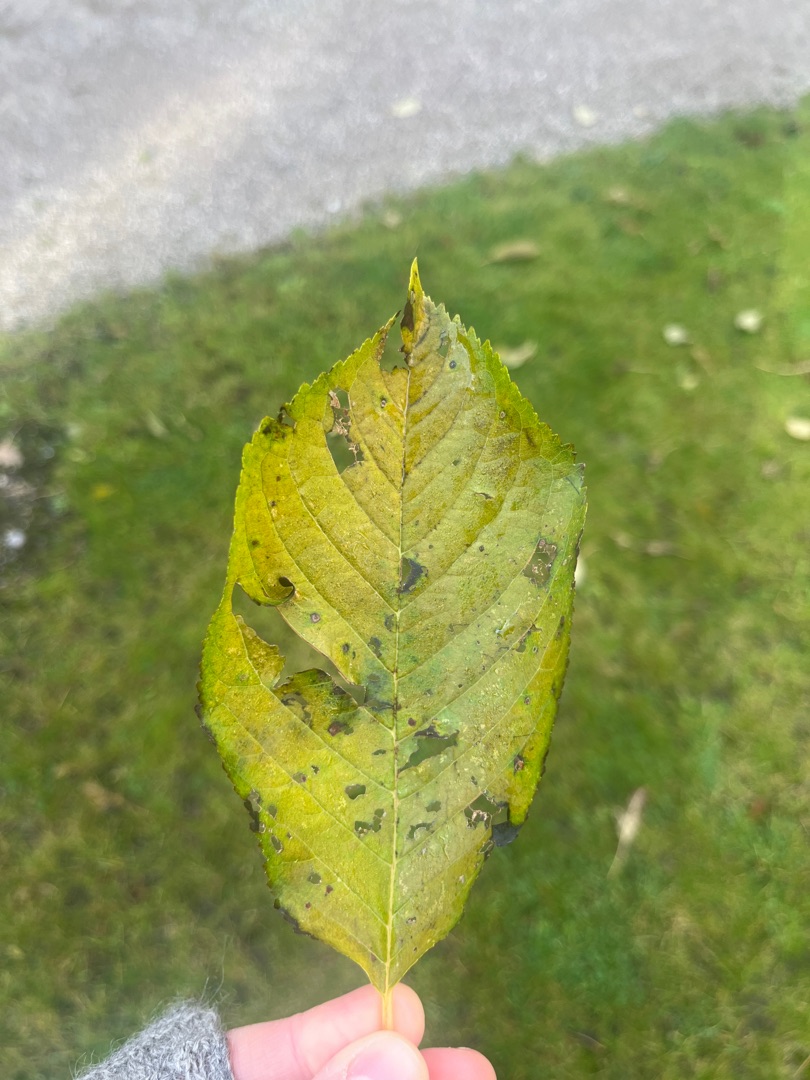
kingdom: Plantae
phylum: Tracheophyta
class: Magnoliopsida
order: Rosales
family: Rosaceae
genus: Prunus
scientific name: Prunus avium
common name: Fugle-kirsebær
